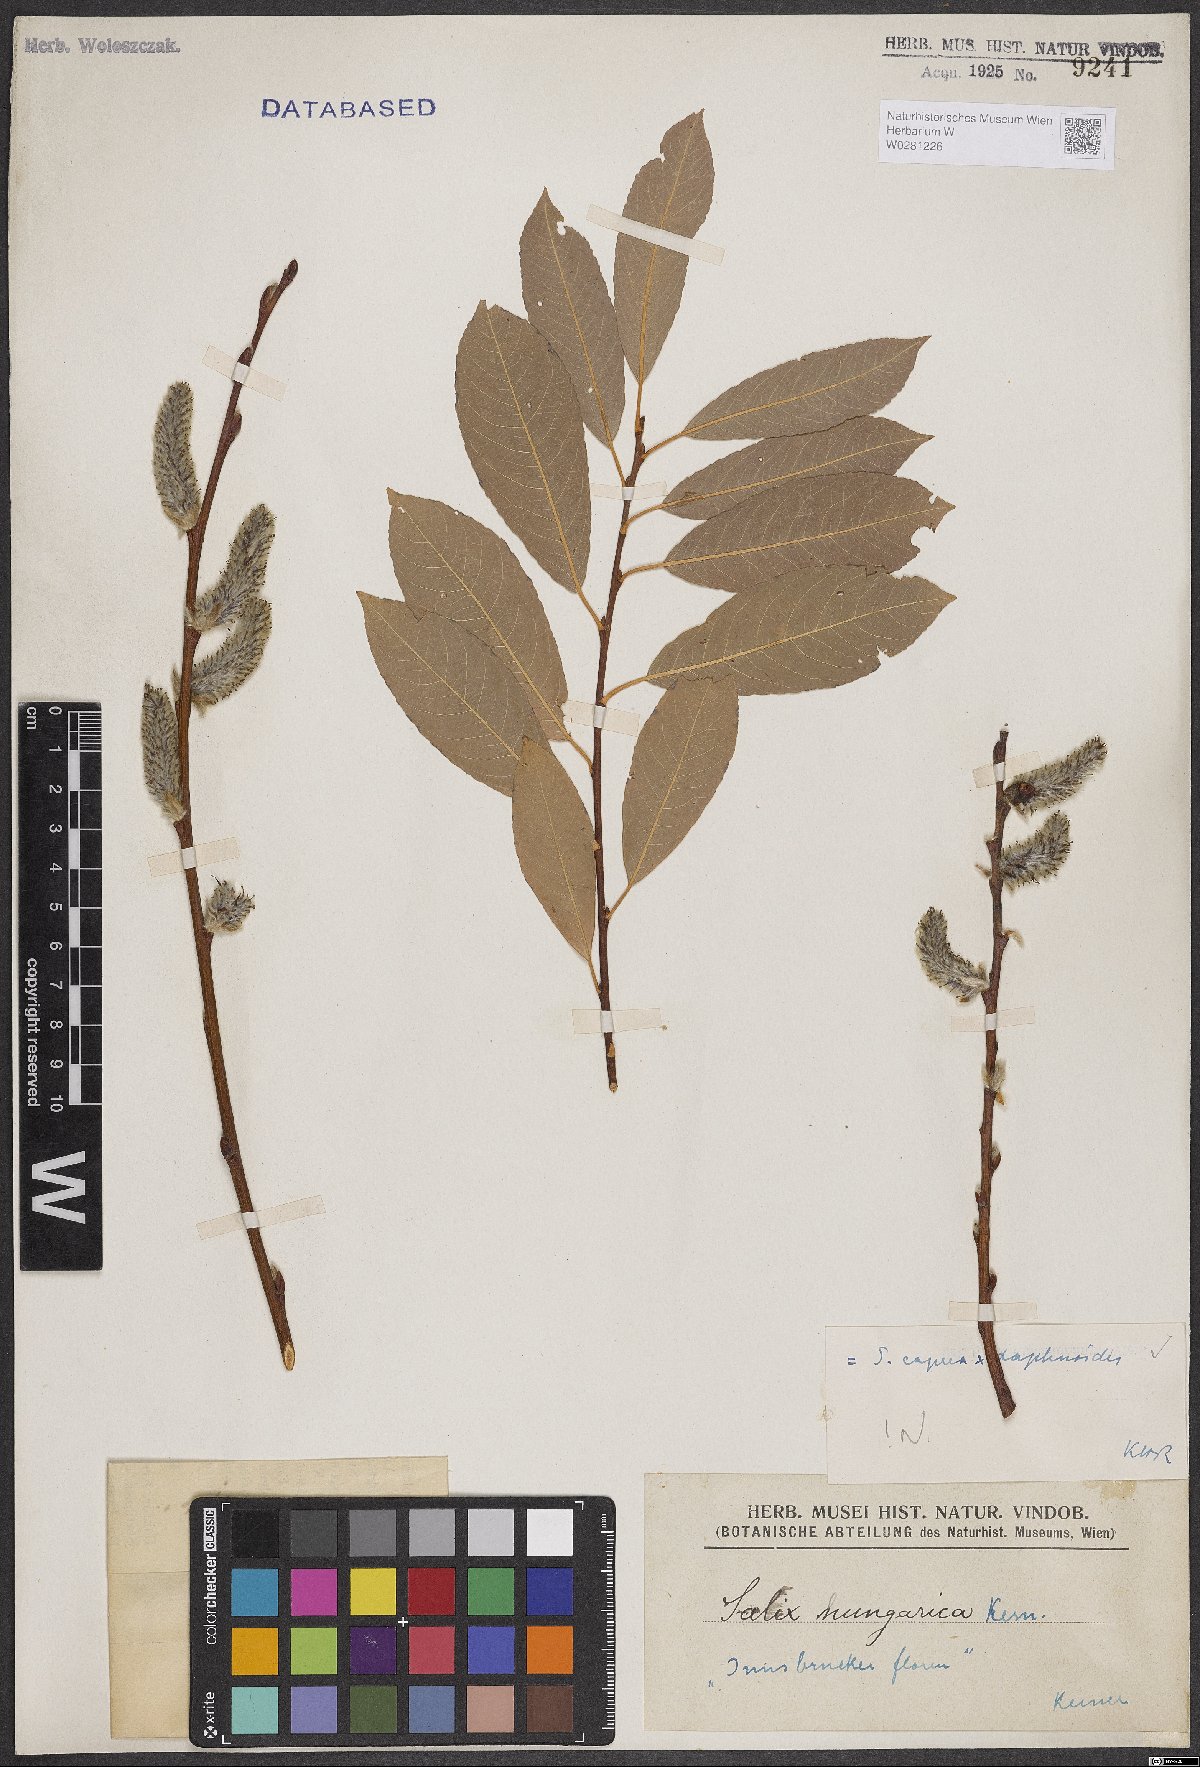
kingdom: Plantae
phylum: Tracheophyta
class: Magnoliopsida
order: Malpighiales
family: Salicaceae
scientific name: Salicaceae
